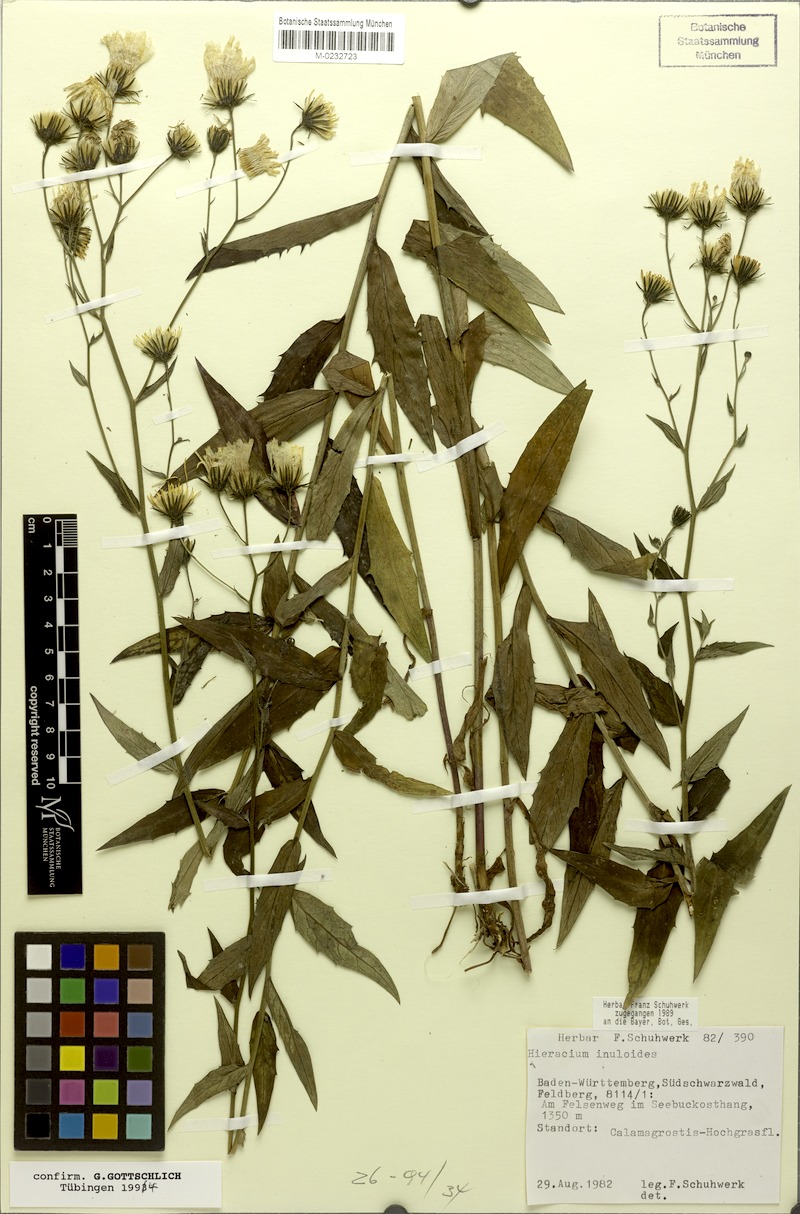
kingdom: Plantae
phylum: Tracheophyta
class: Magnoliopsida
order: Asterales
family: Asteraceae
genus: Hieracium
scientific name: Hieracium inuloides
